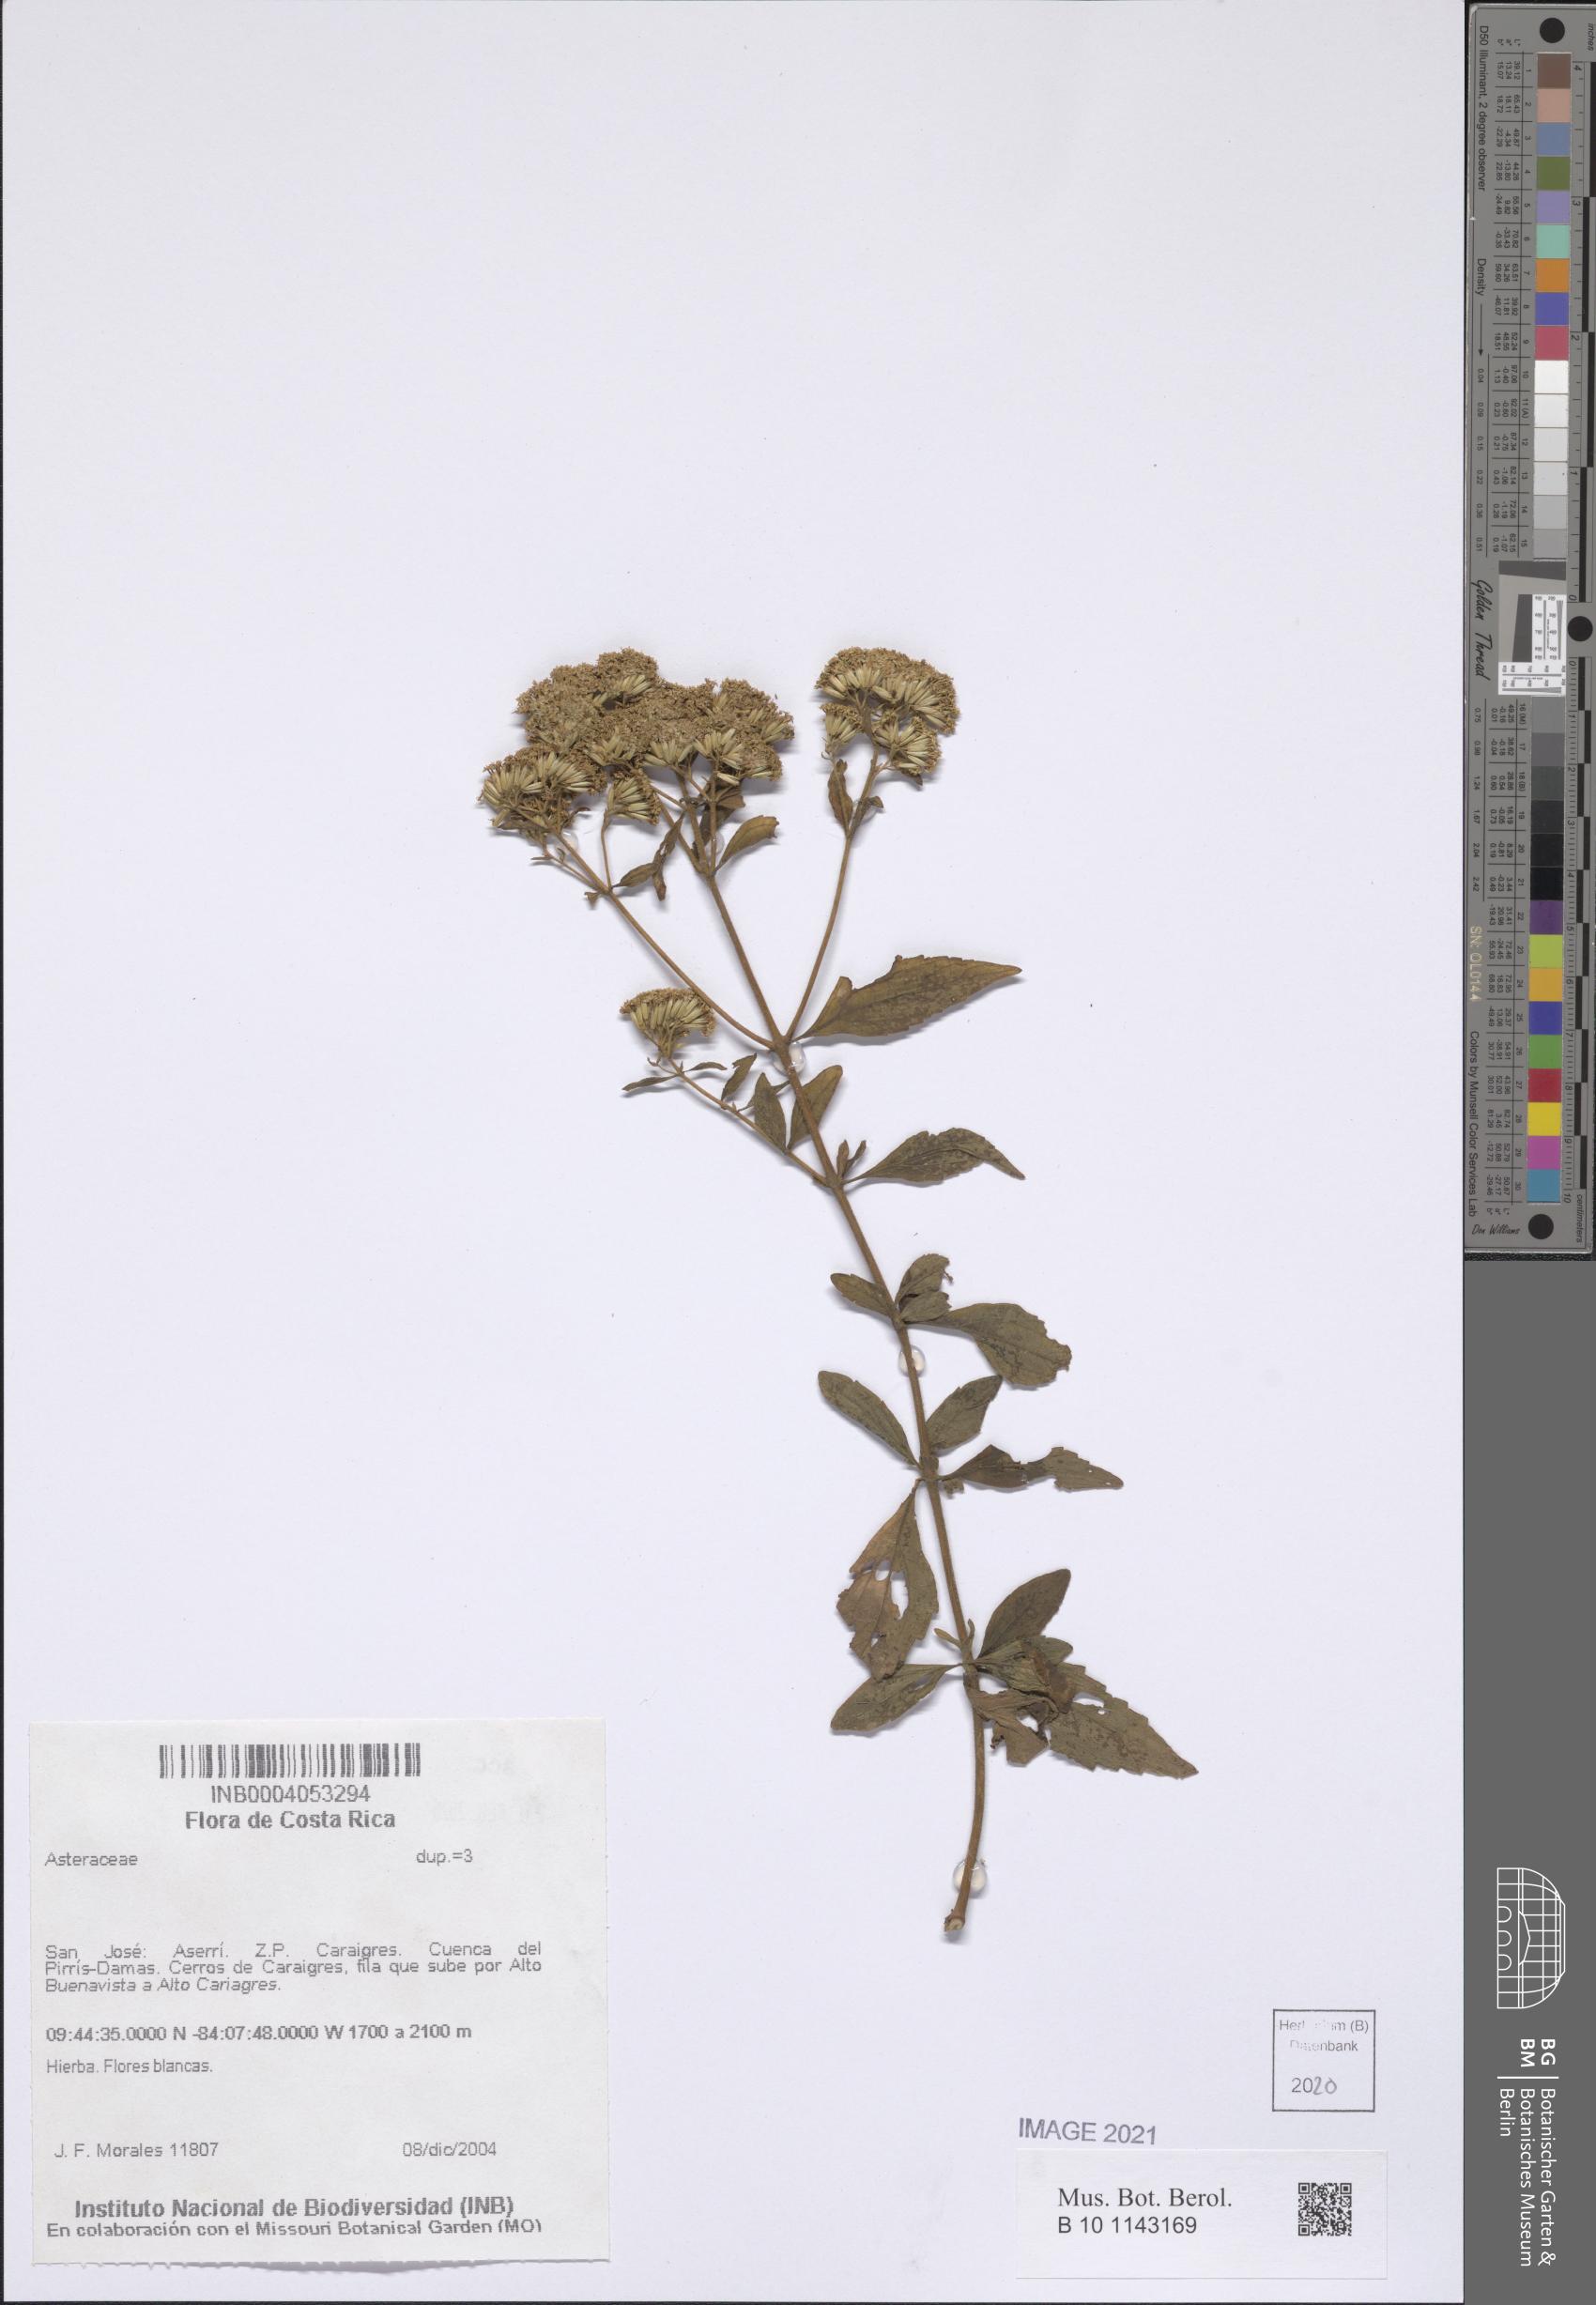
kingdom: Plantae
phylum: Tracheophyta
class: Magnoliopsida
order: Asterales
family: Asteraceae
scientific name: Asteraceae
